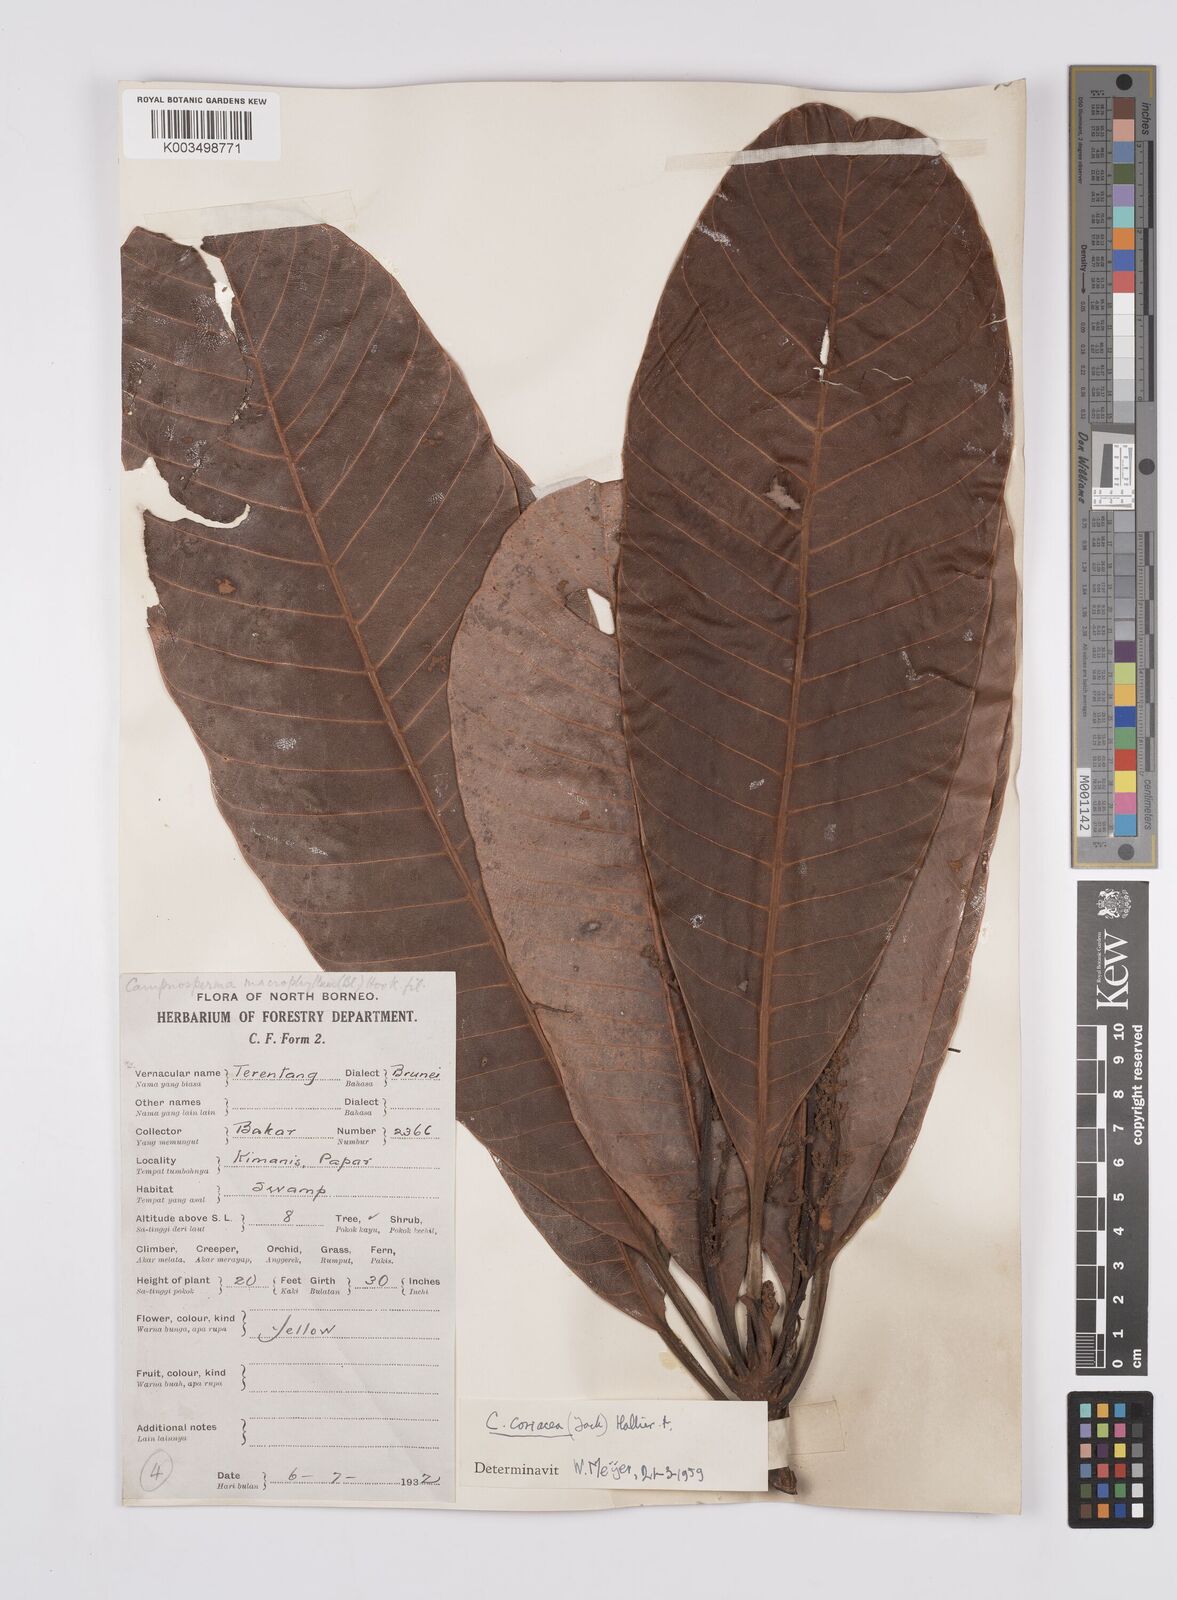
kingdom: Plantae
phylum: Tracheophyta
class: Magnoliopsida
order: Sapindales
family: Anacardiaceae
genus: Campnosperma
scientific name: Campnosperma coriaceum
